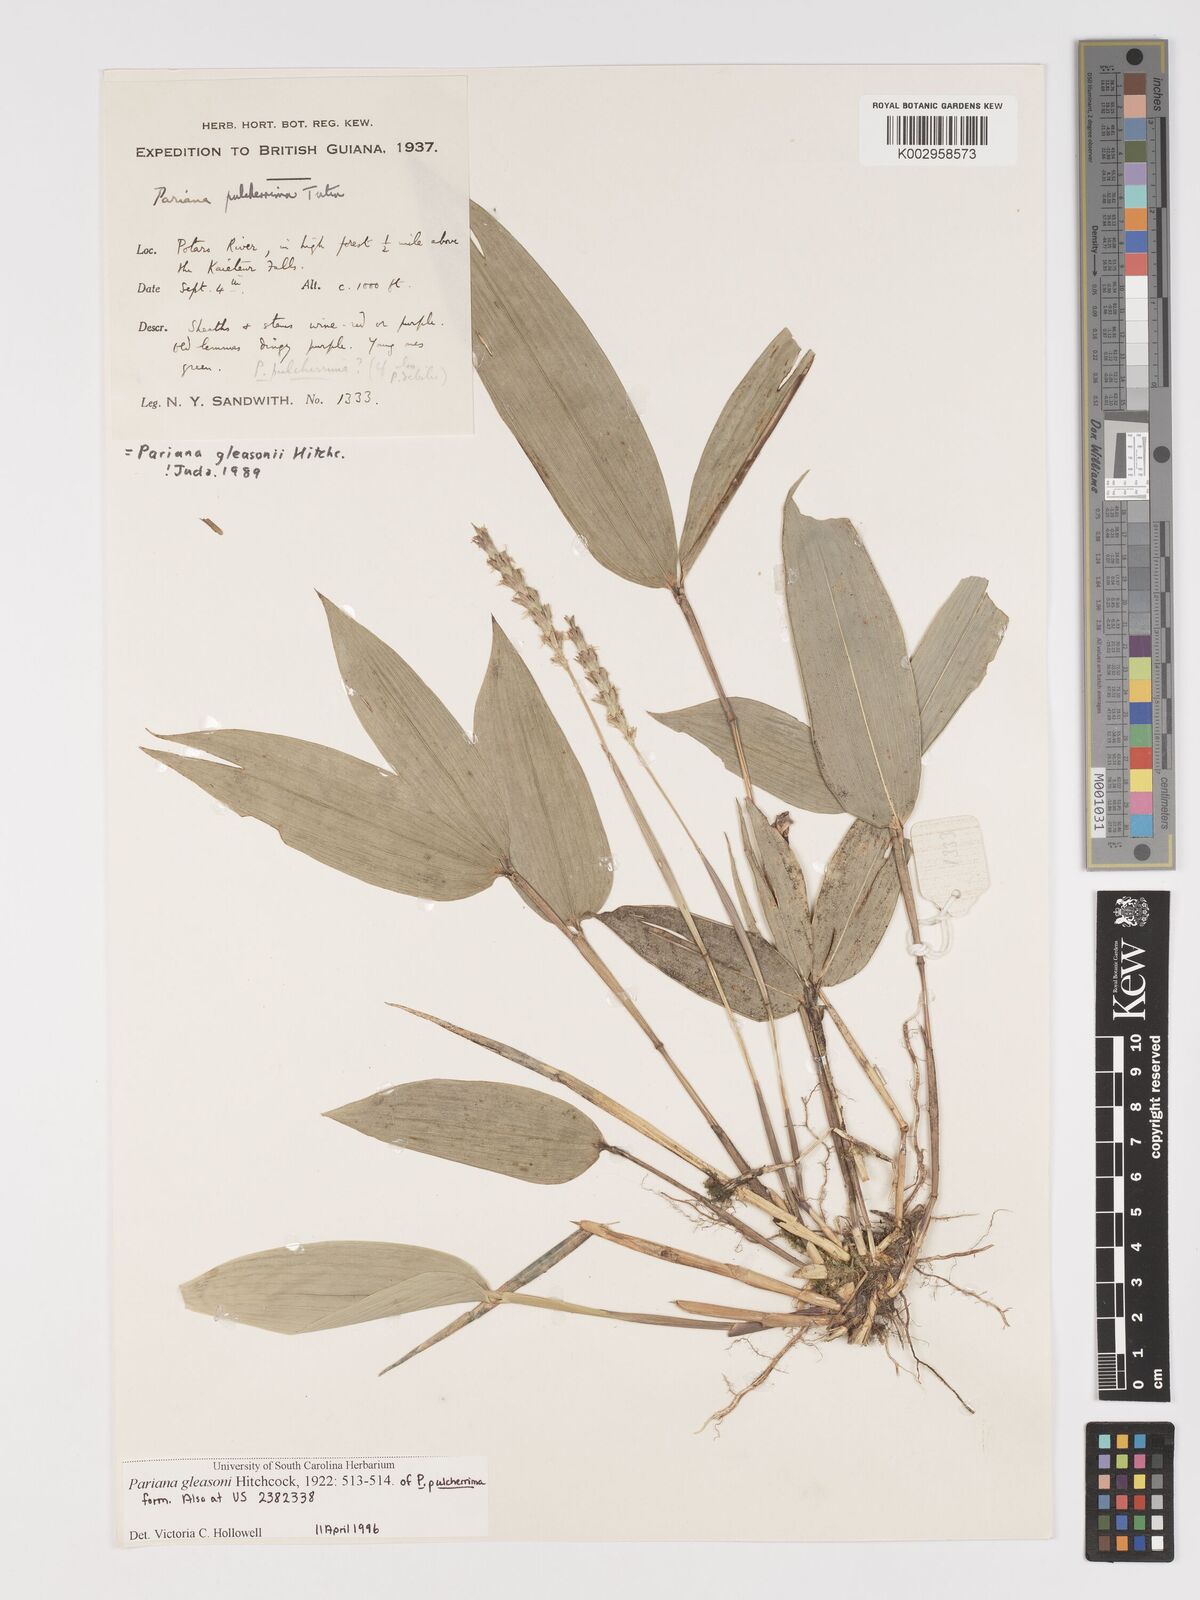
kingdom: Plantae
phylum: Tracheophyta
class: Liliopsida
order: Poales
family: Poaceae
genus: Pariana
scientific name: Pariana radiciflora
